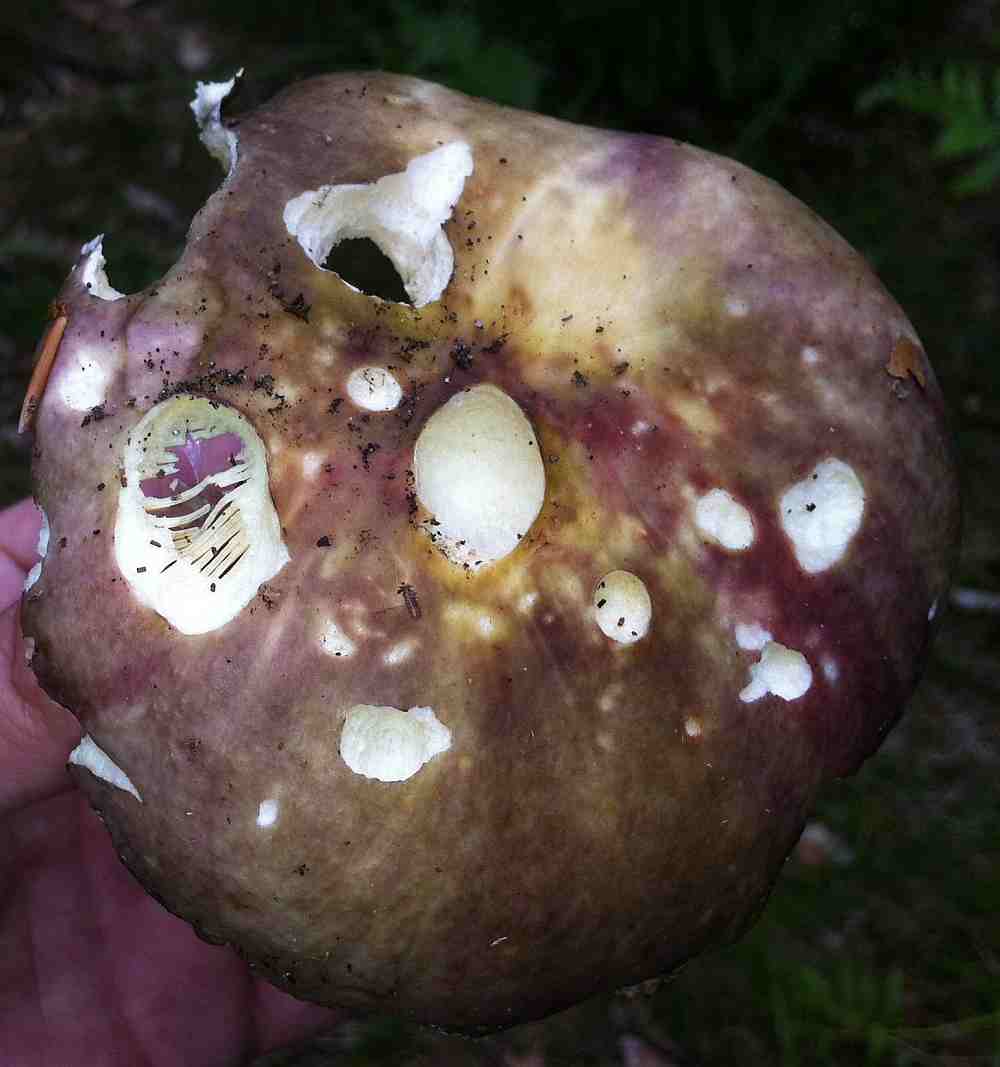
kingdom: Fungi
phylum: Basidiomycota
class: Agaricomycetes
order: Russulales
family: Russulaceae
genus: Russula
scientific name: Russula romellii
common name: romells skørhat
